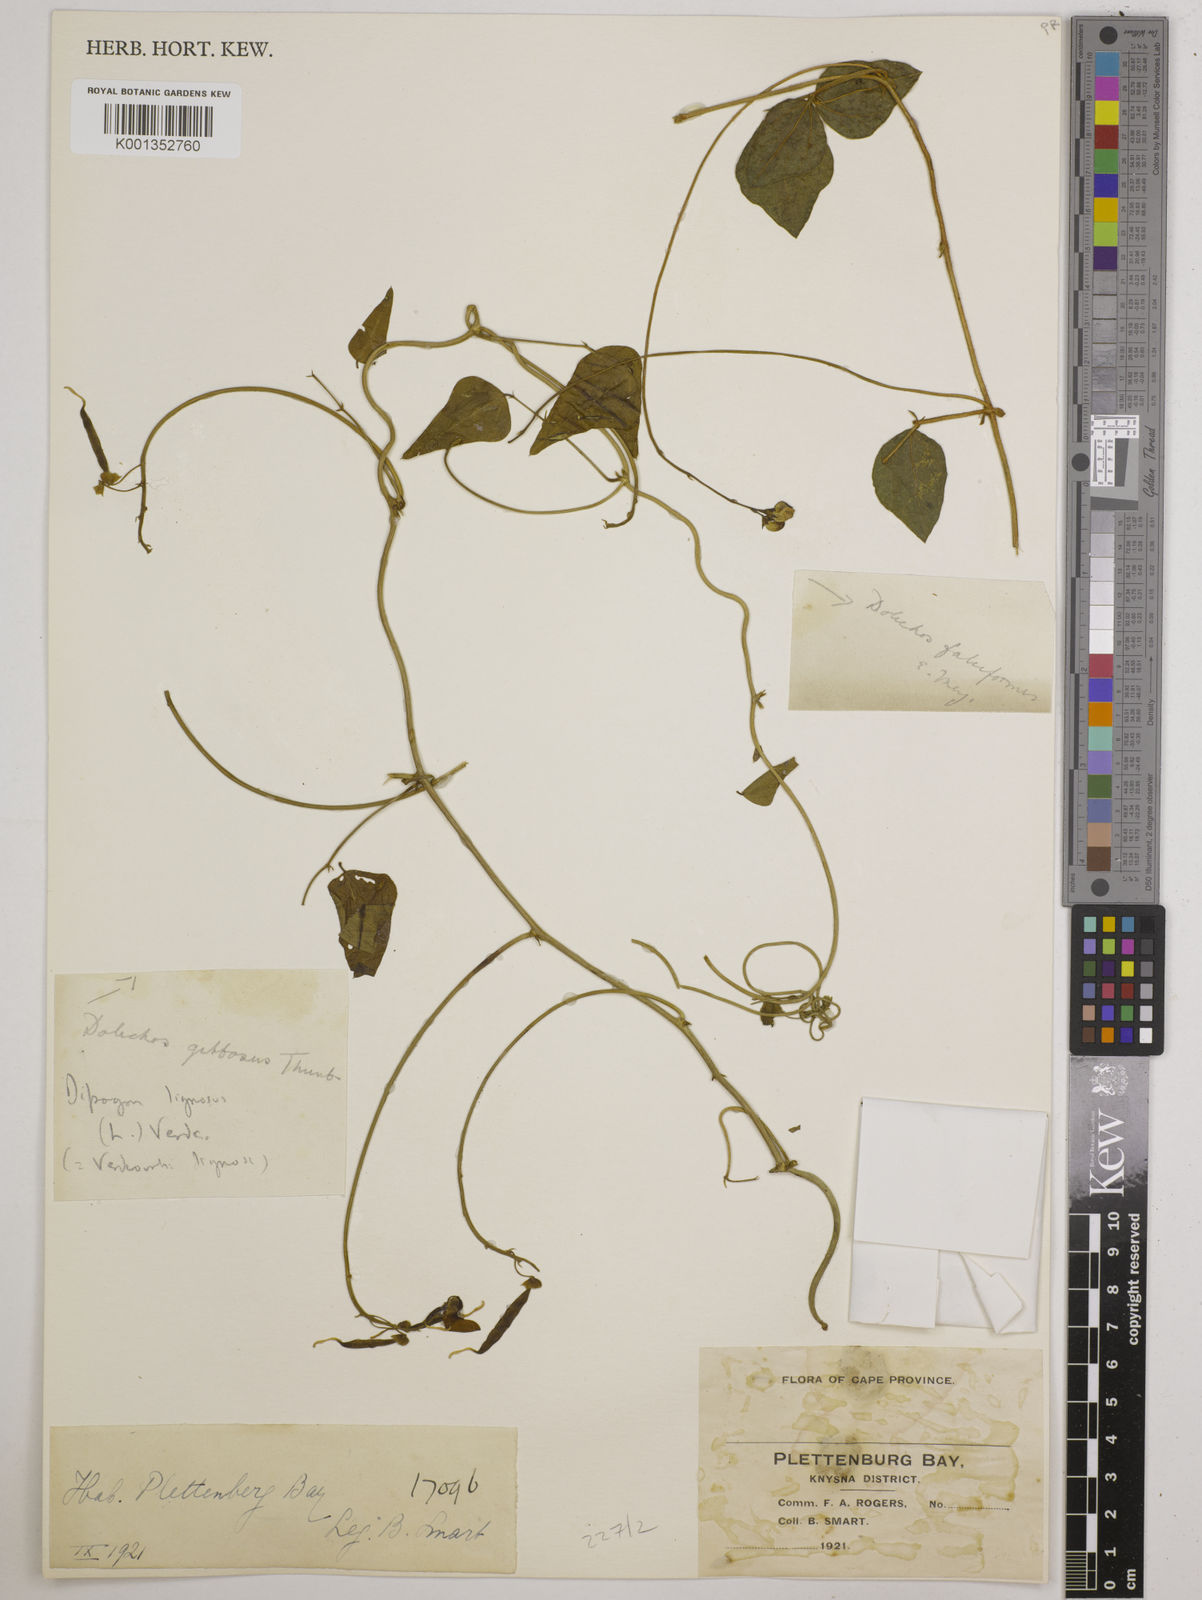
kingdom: Plantae
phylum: Tracheophyta
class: Magnoliopsida
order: Fabales
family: Fabaceae
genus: Dipogon
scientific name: Dipogon lignosus
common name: Okie bean
